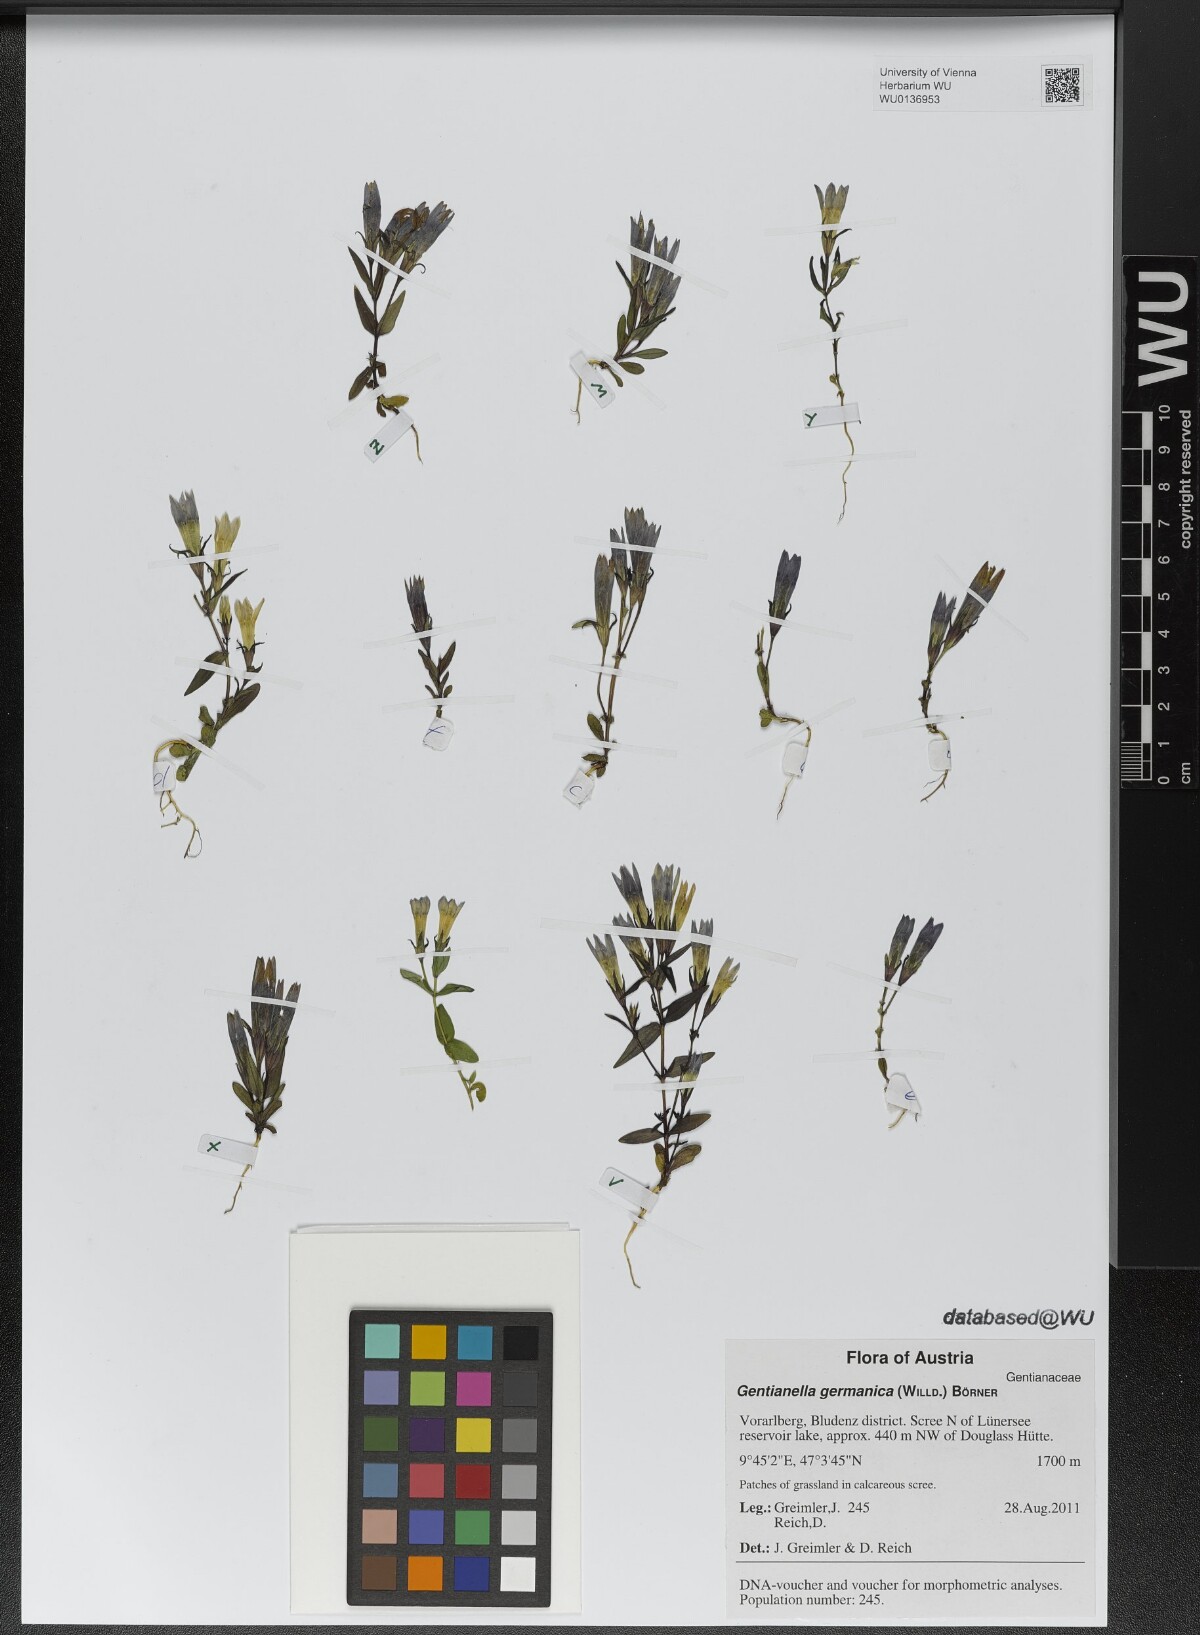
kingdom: Plantae
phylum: Tracheophyta
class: Magnoliopsida
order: Gentianales
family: Gentianaceae
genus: Gentianella
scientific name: Gentianella germanica
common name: Chiltern-gentian
